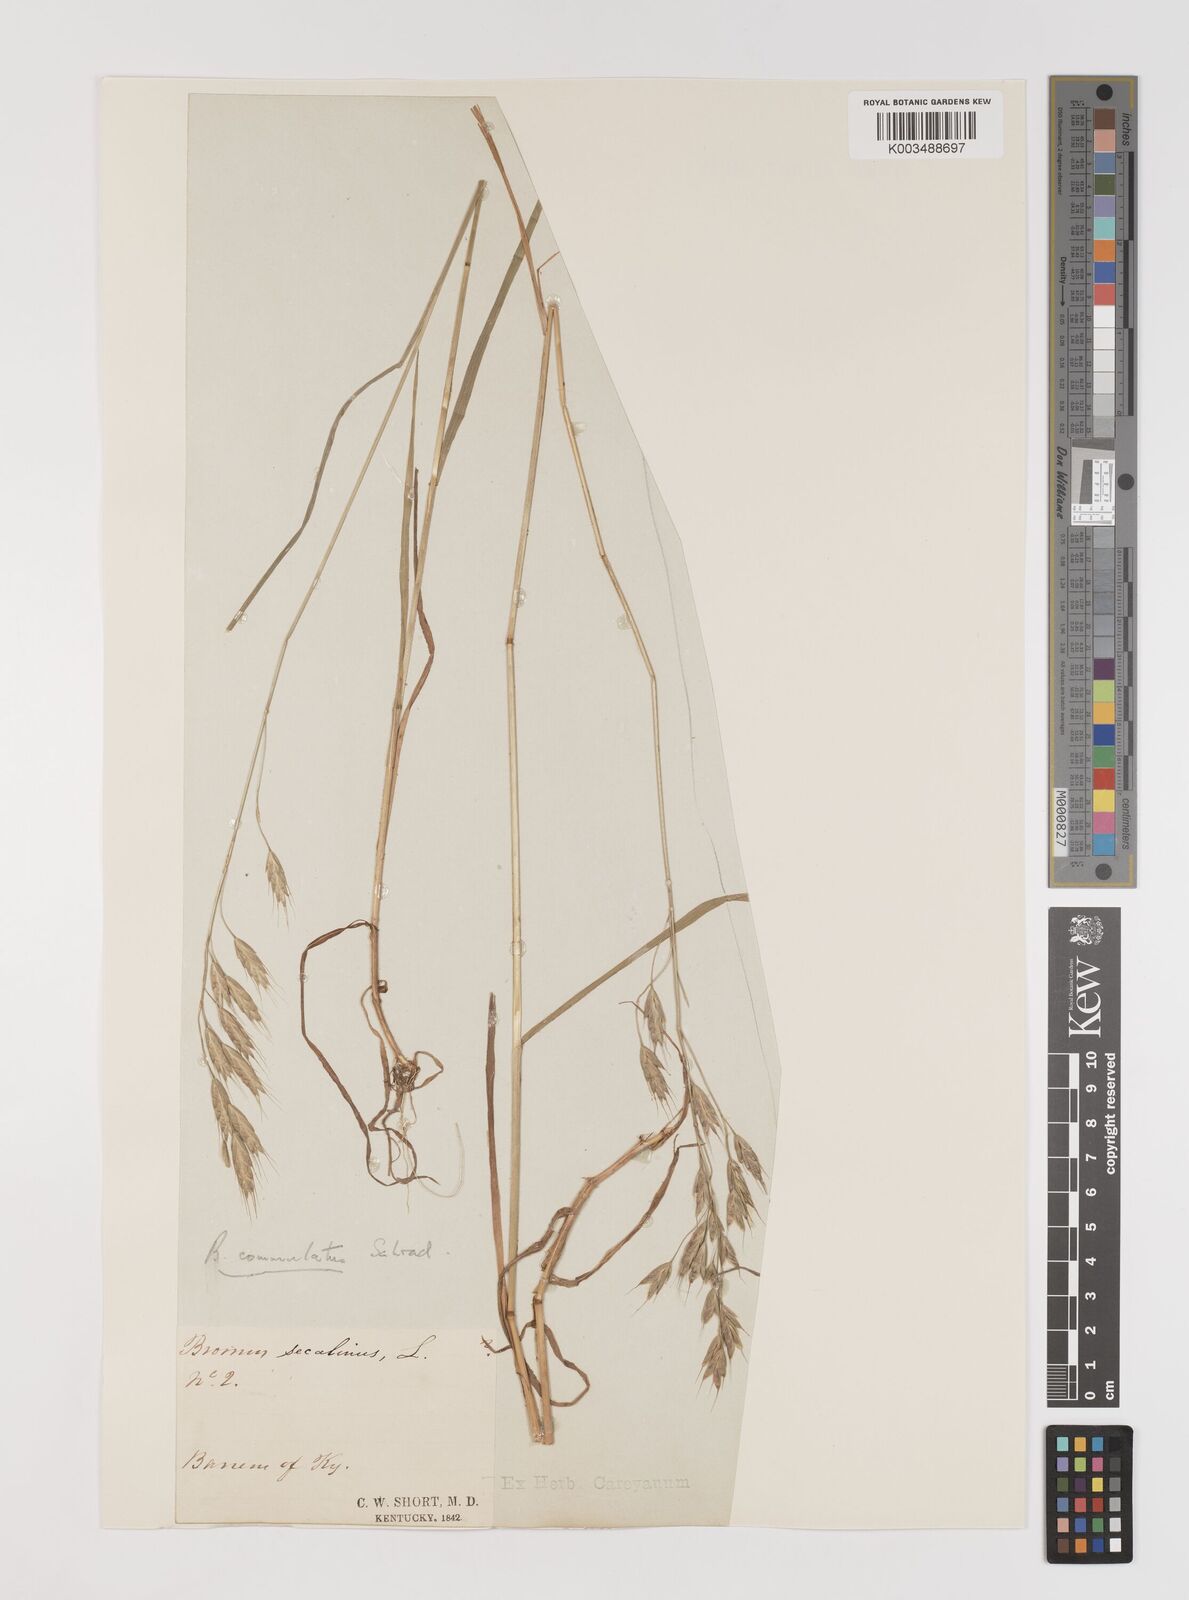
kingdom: Plantae
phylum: Tracheophyta
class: Liliopsida
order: Poales
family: Poaceae
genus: Bromus
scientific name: Bromus racemosus
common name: Bald brome
